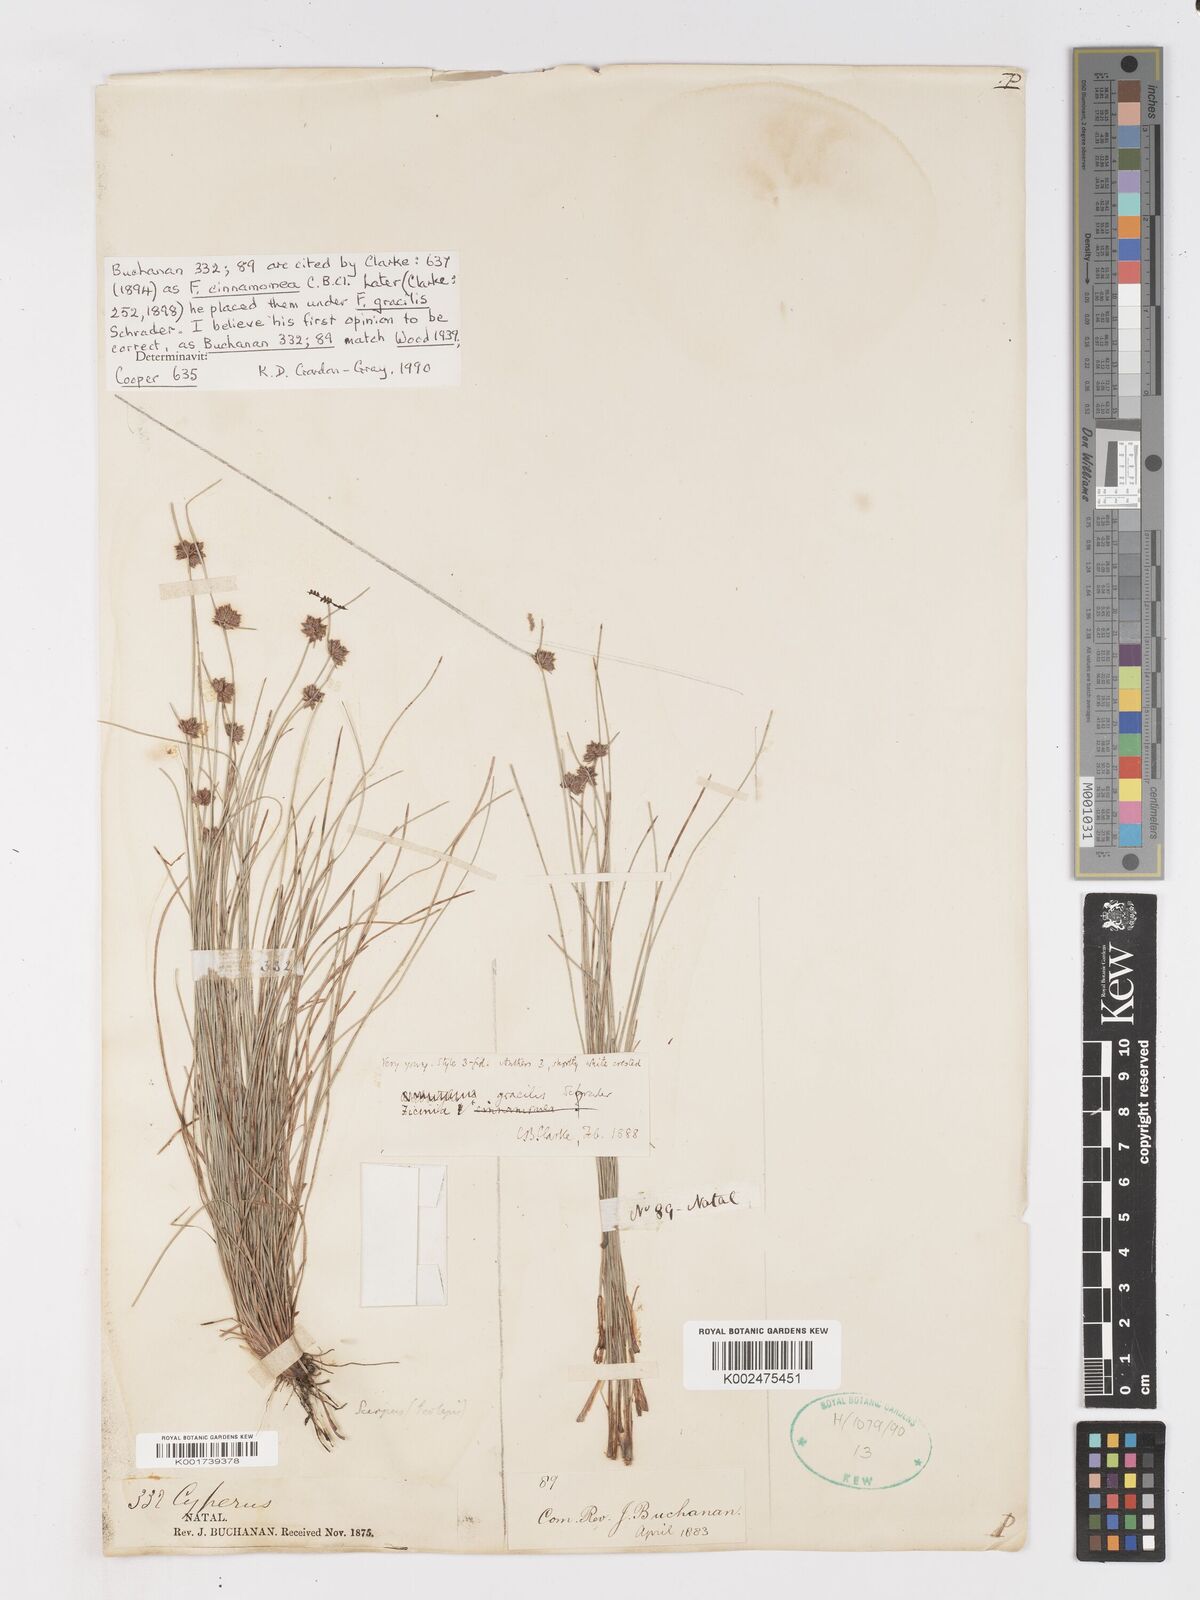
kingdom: Plantae
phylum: Tracheophyta
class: Liliopsida
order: Poales
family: Cyperaceae
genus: Ficinia
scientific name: Ficinia cinnamomea
